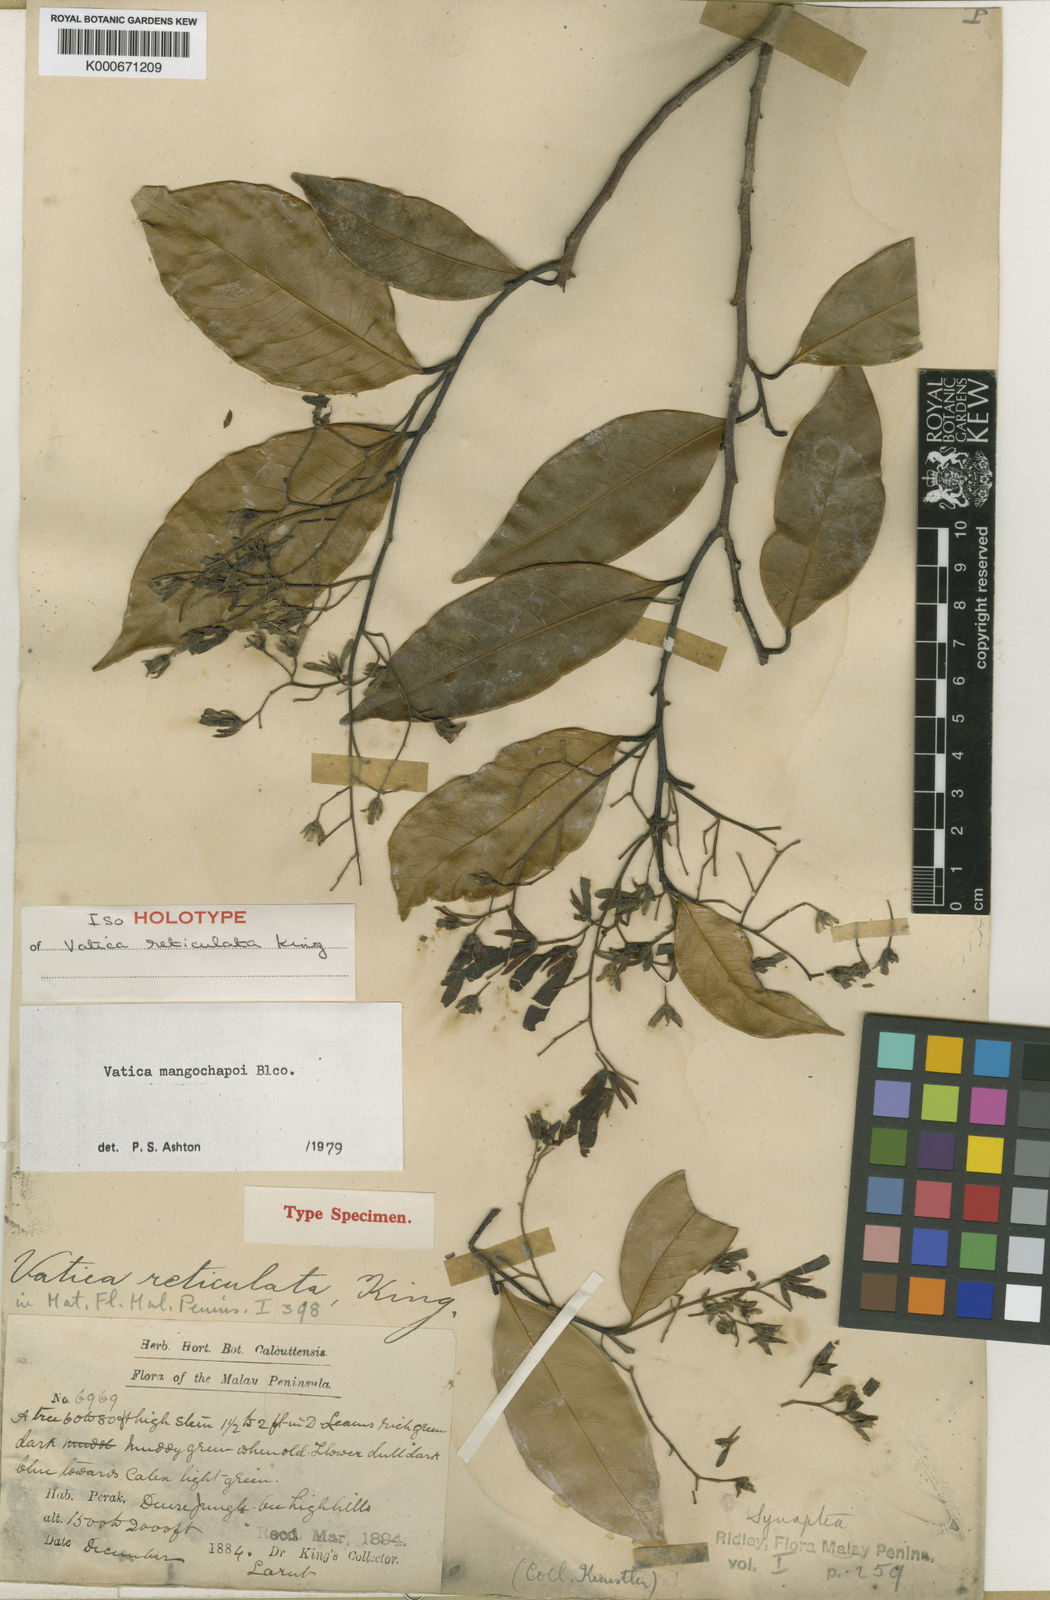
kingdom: Plantae
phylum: Tracheophyta
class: Magnoliopsida
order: Malvales
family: Dipterocarpaceae
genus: Vatica
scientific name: Vatica mangachapoi
